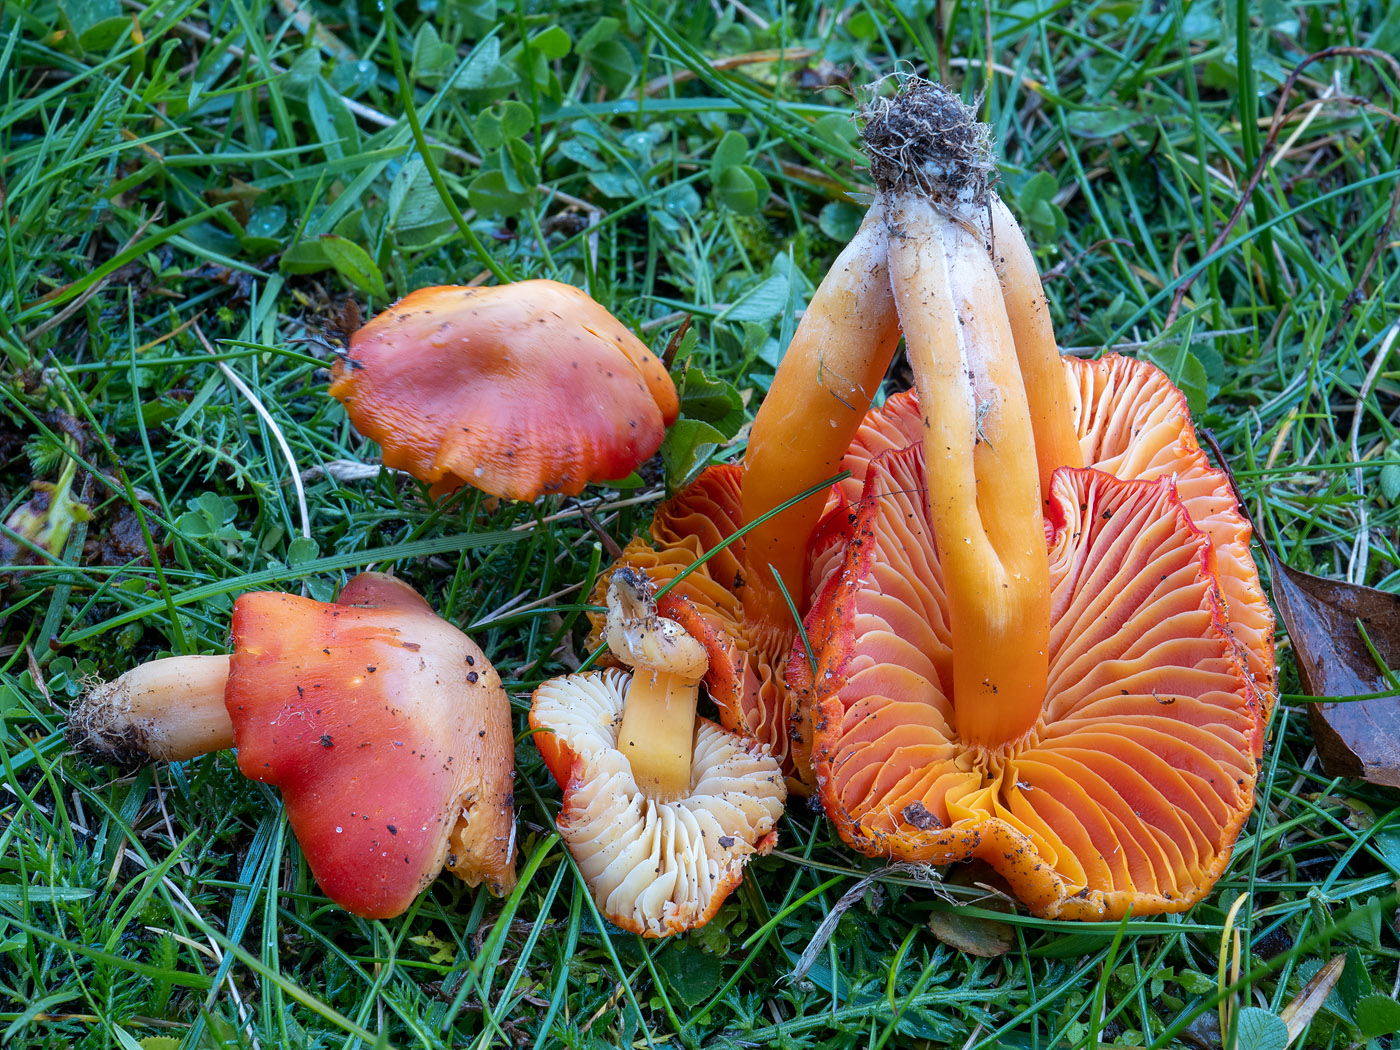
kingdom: Fungi
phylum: Basidiomycota
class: Agaricomycetes
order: Agaricales
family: Hygrophoraceae
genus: Hygrocybe
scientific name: Hygrocybe coccinea
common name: cinnober-vokshat
